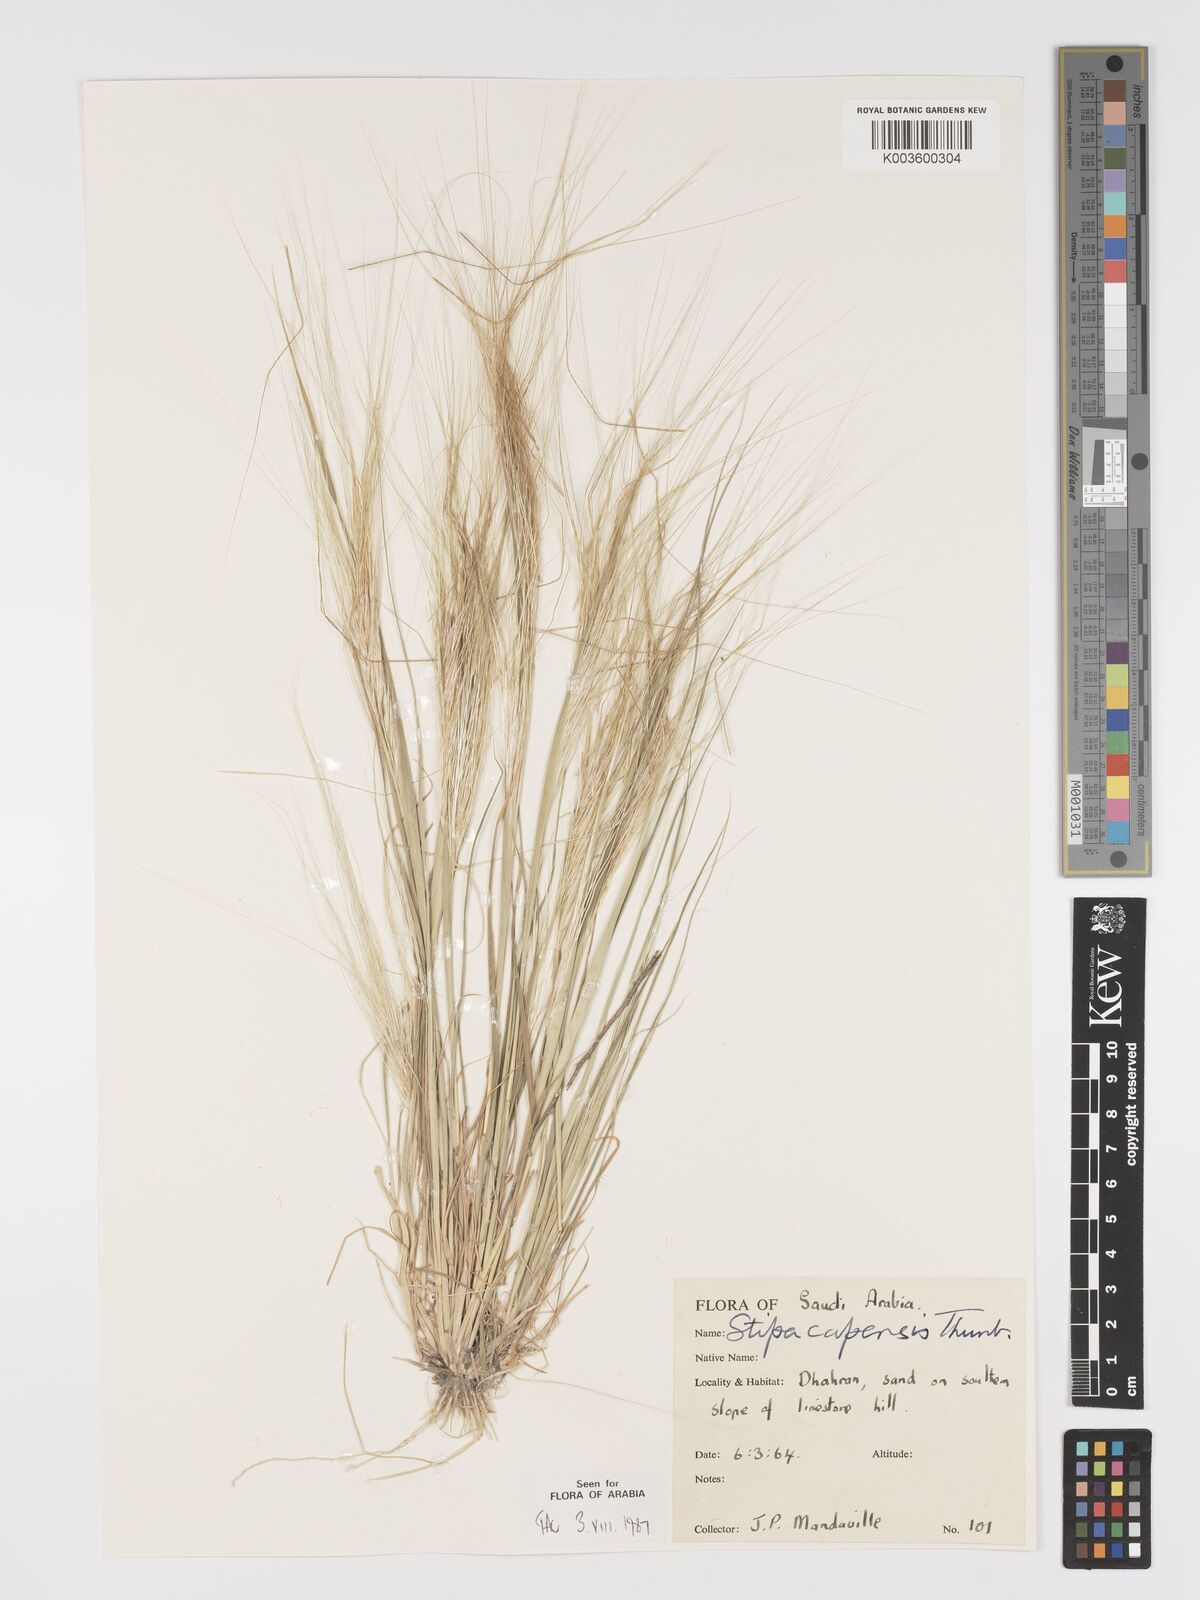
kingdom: Plantae
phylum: Tracheophyta
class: Liliopsida
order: Poales
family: Poaceae
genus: Stipellula
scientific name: Stipellula capensis
